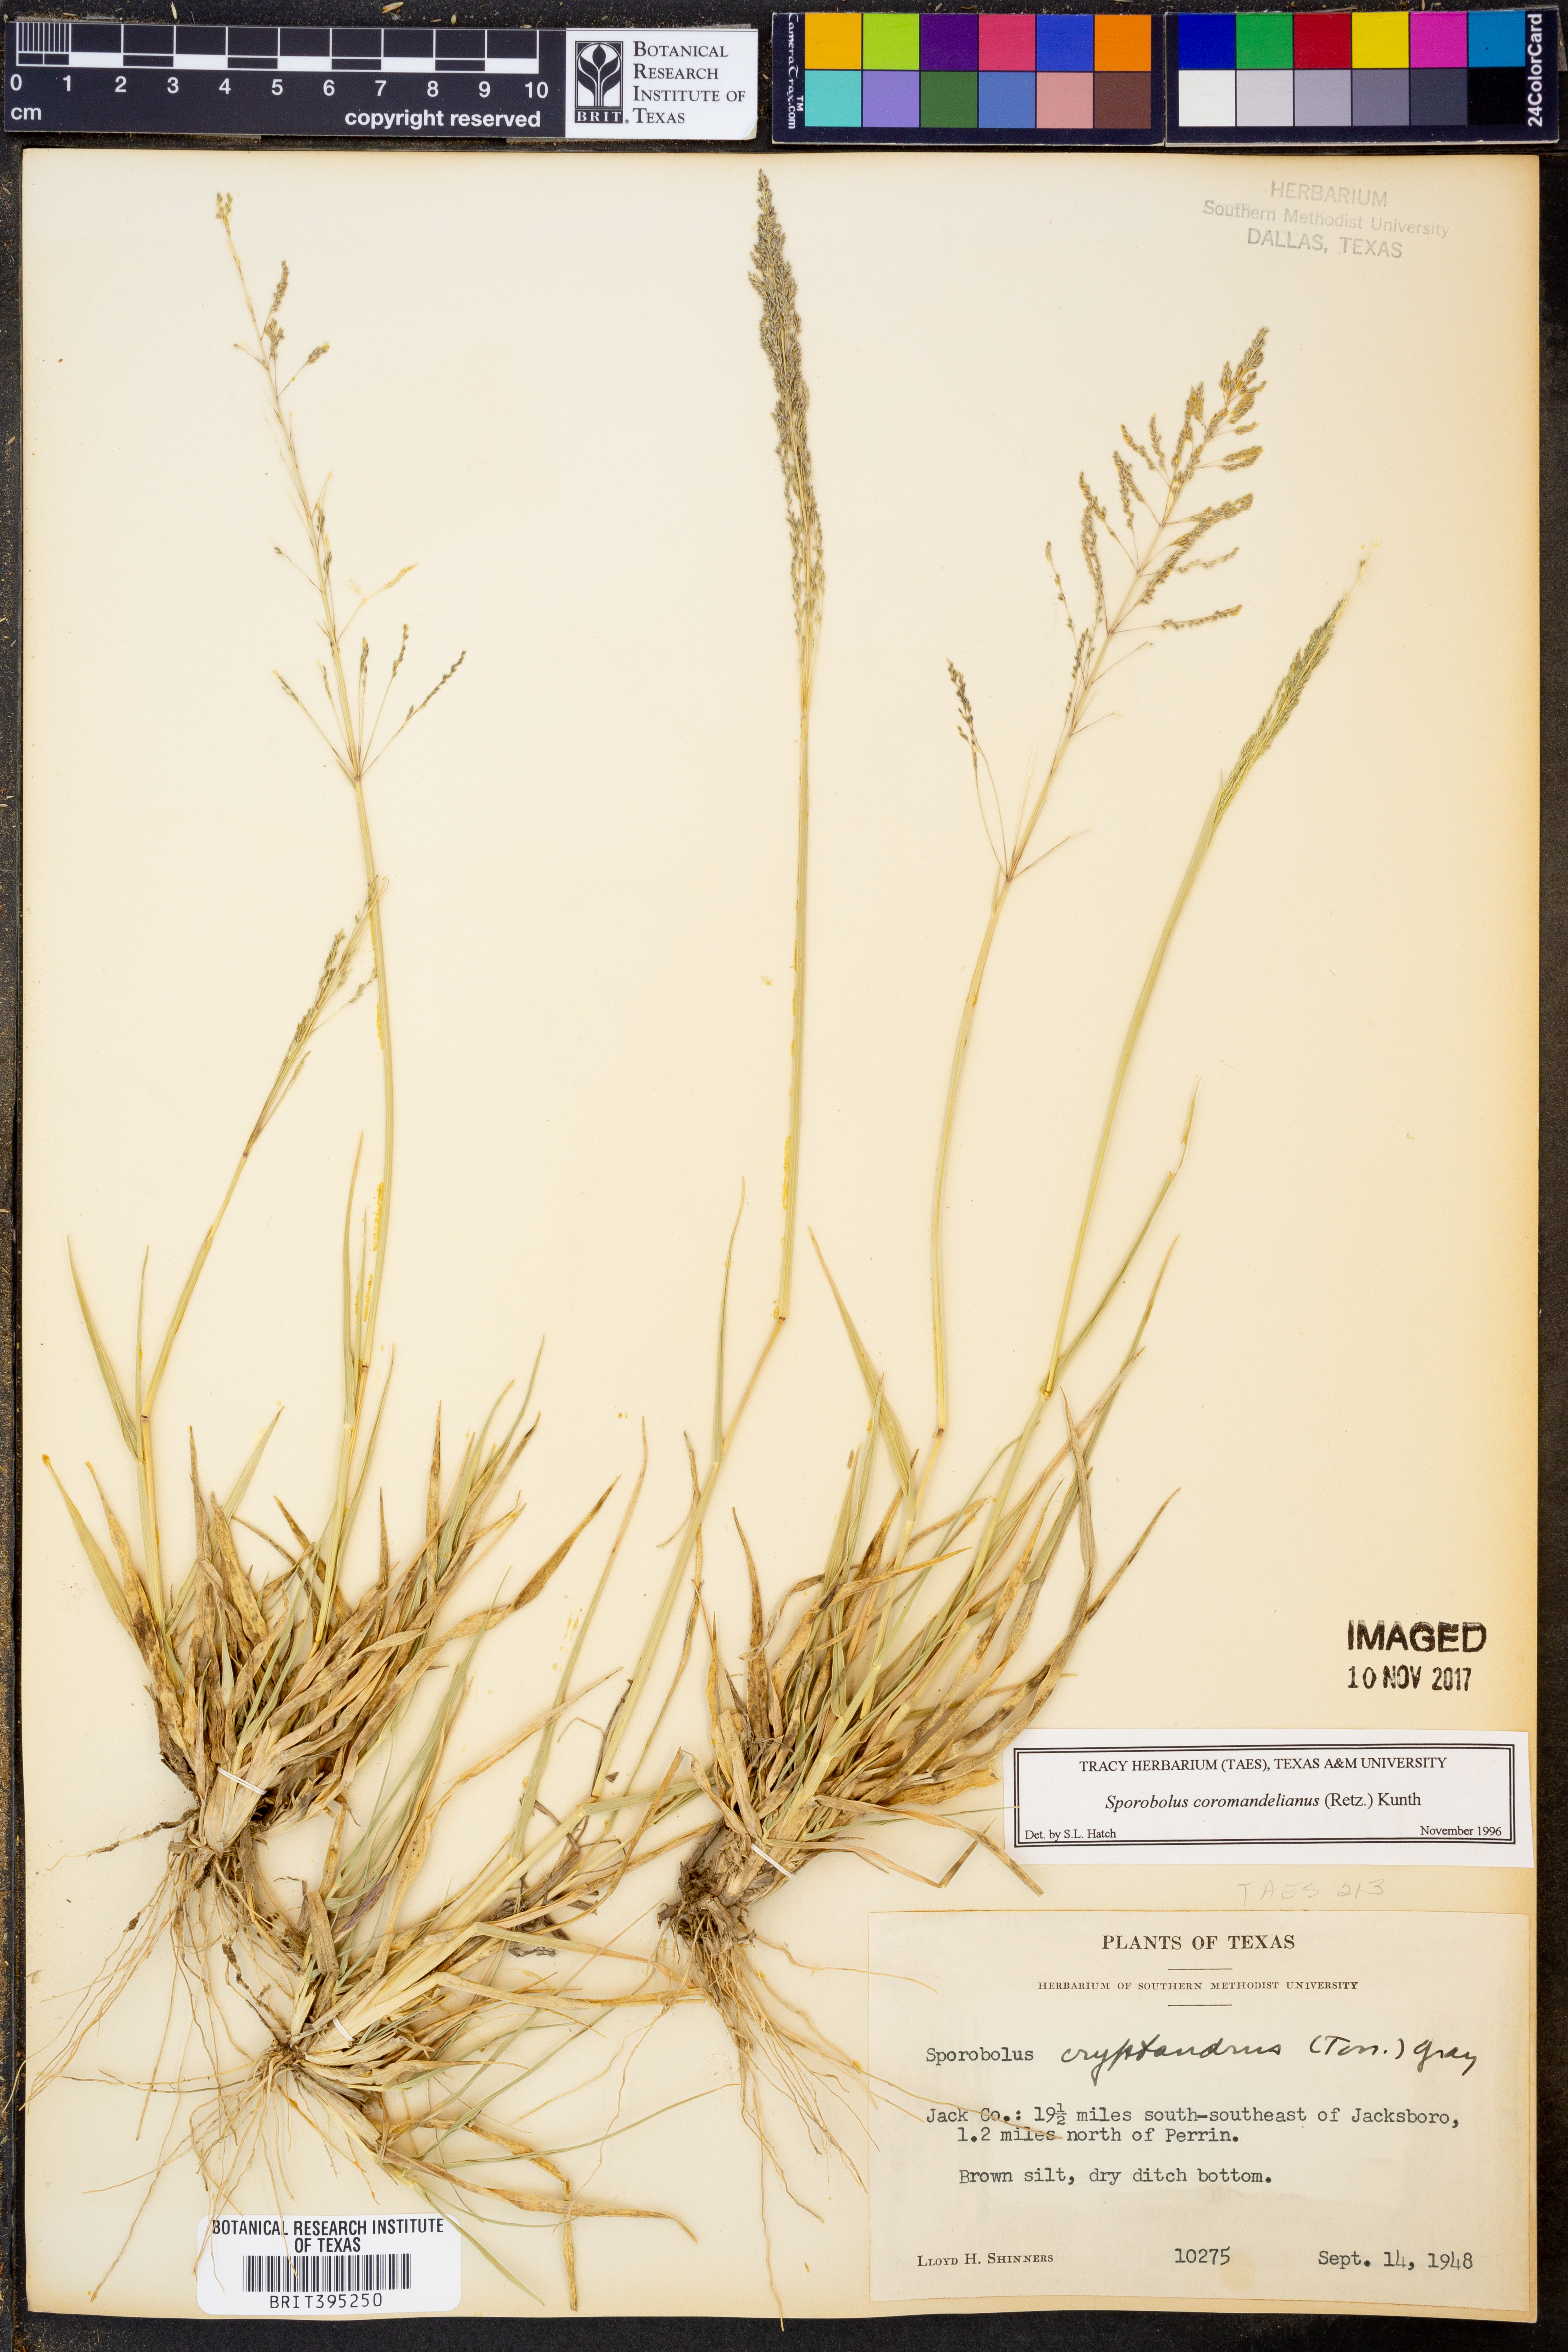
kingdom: Plantae
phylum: Tracheophyta
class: Liliopsida
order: Poales
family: Poaceae
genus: Sporobolus
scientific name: Sporobolus coromandelianus
